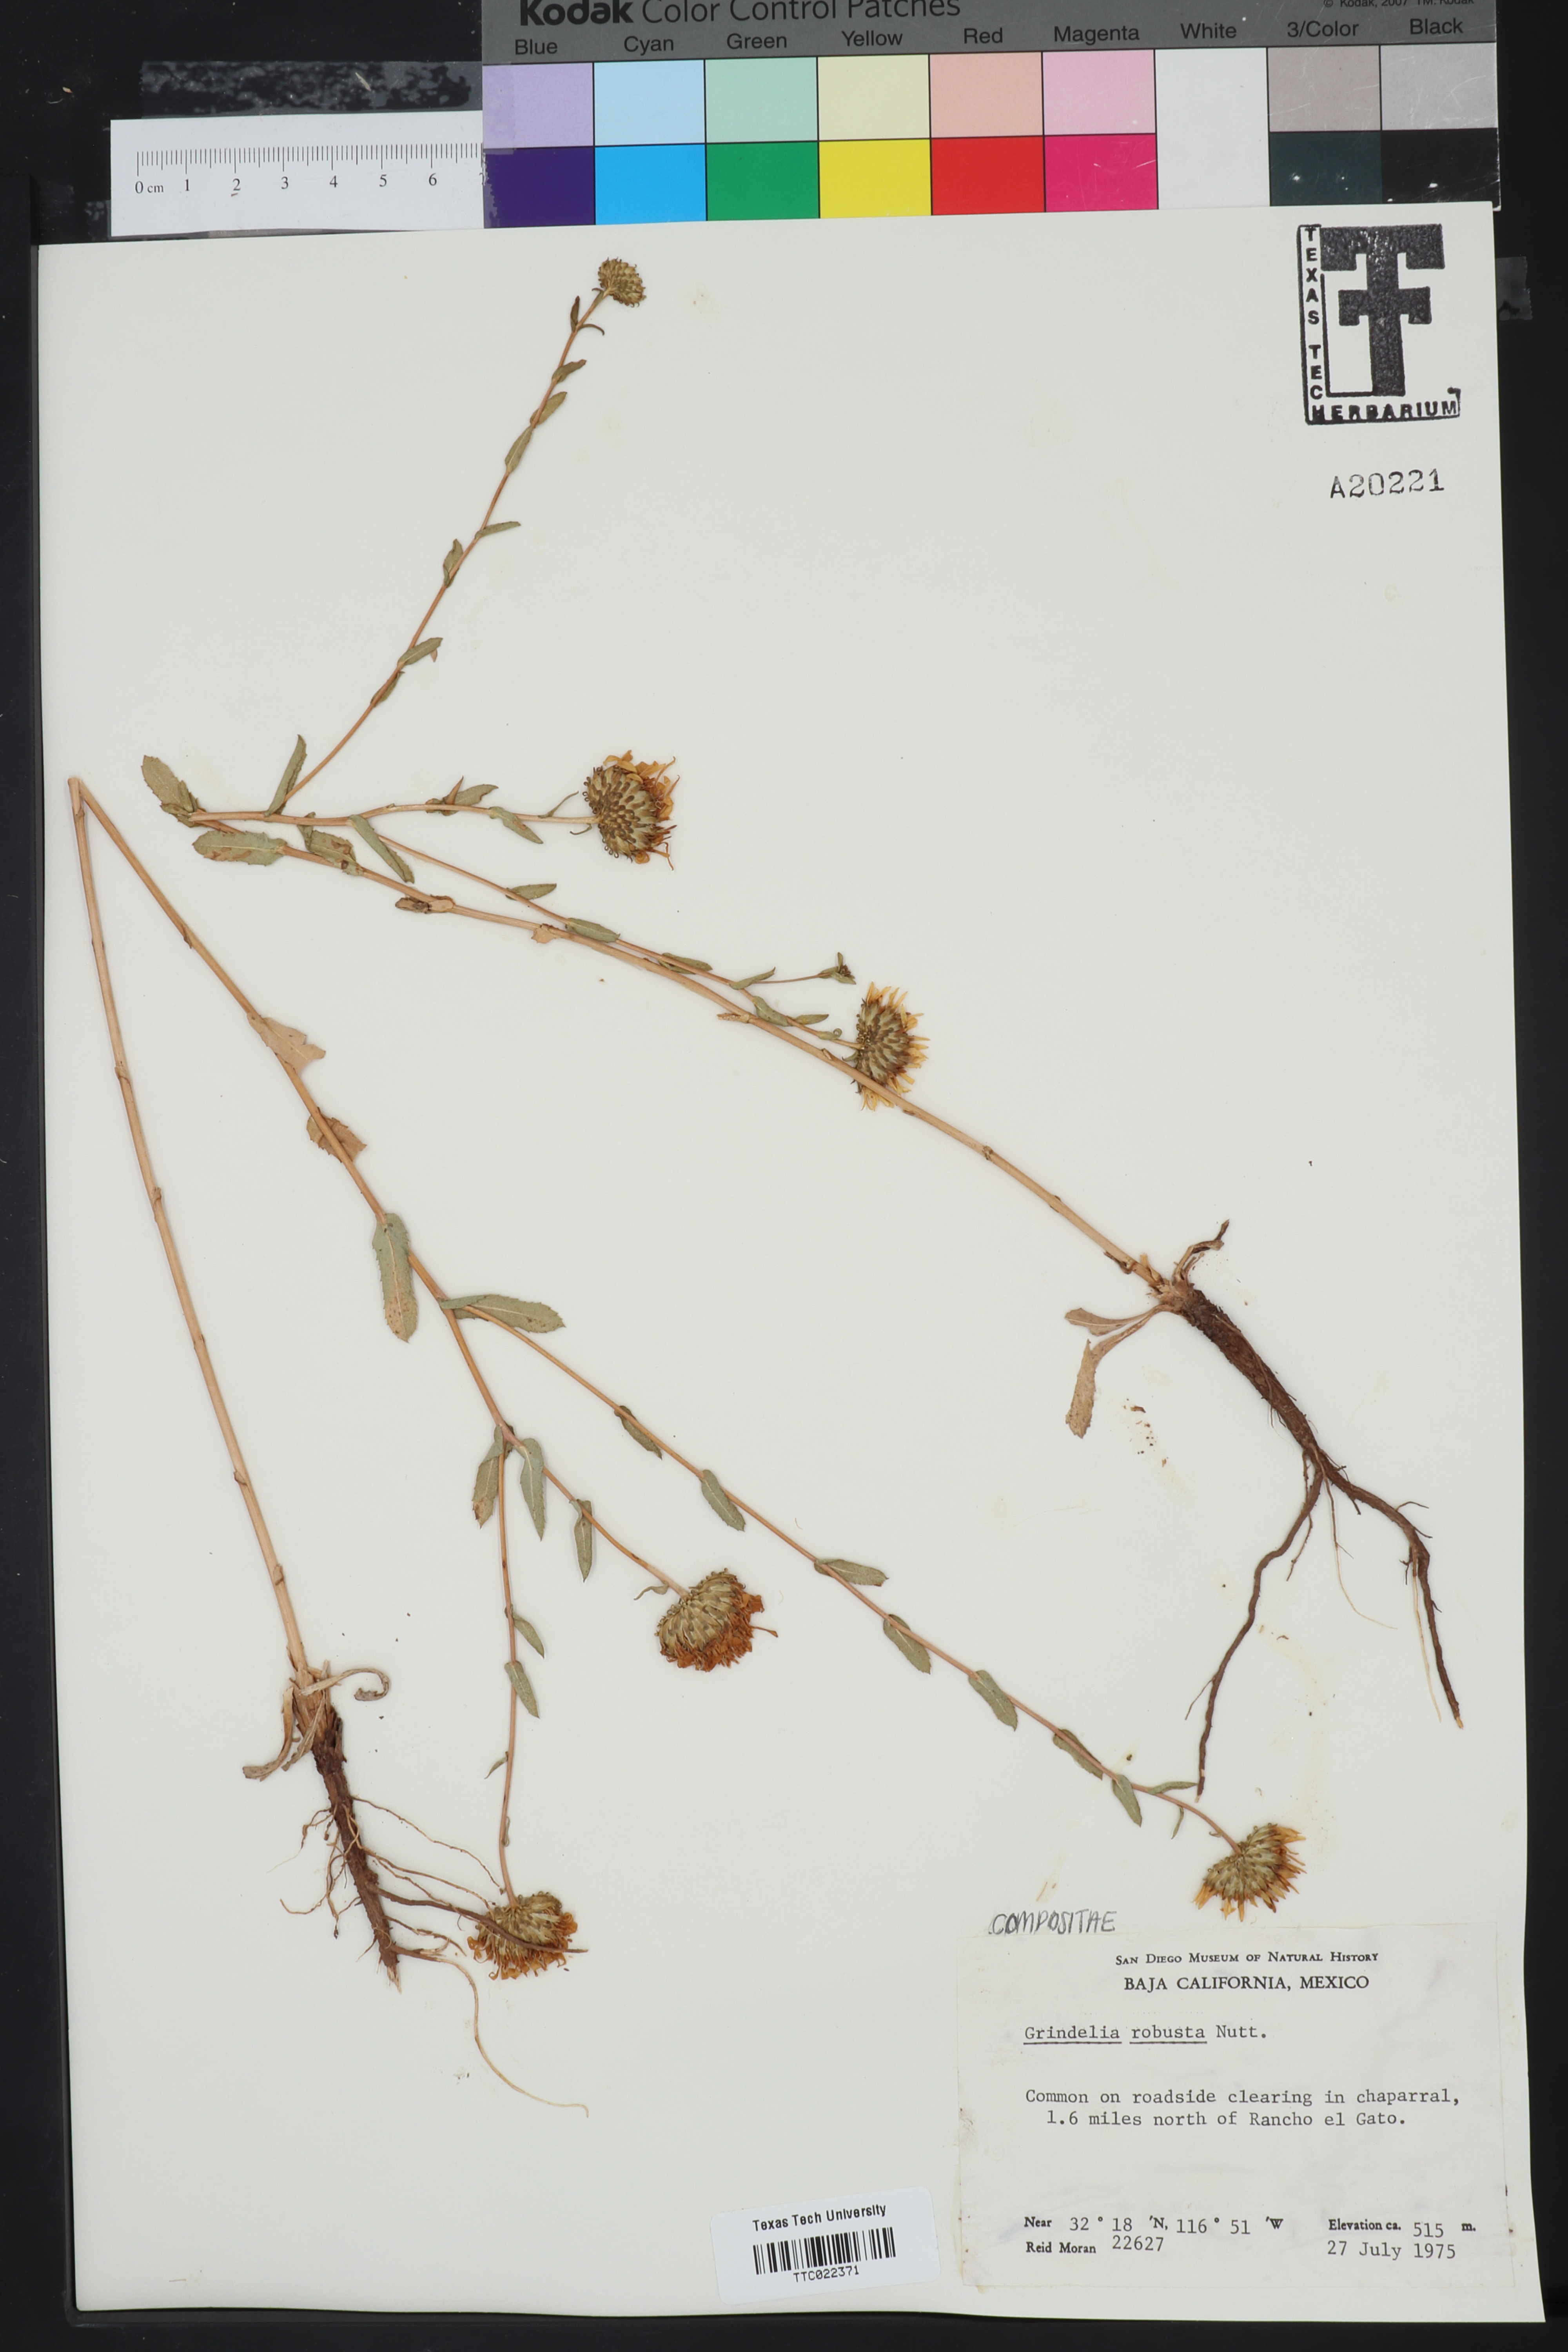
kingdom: Plantae
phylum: Tracheophyta
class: Magnoliopsida
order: Asterales
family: Asteraceae
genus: Grindelia
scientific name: Grindelia hirsutula
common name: Hairy gumweed
